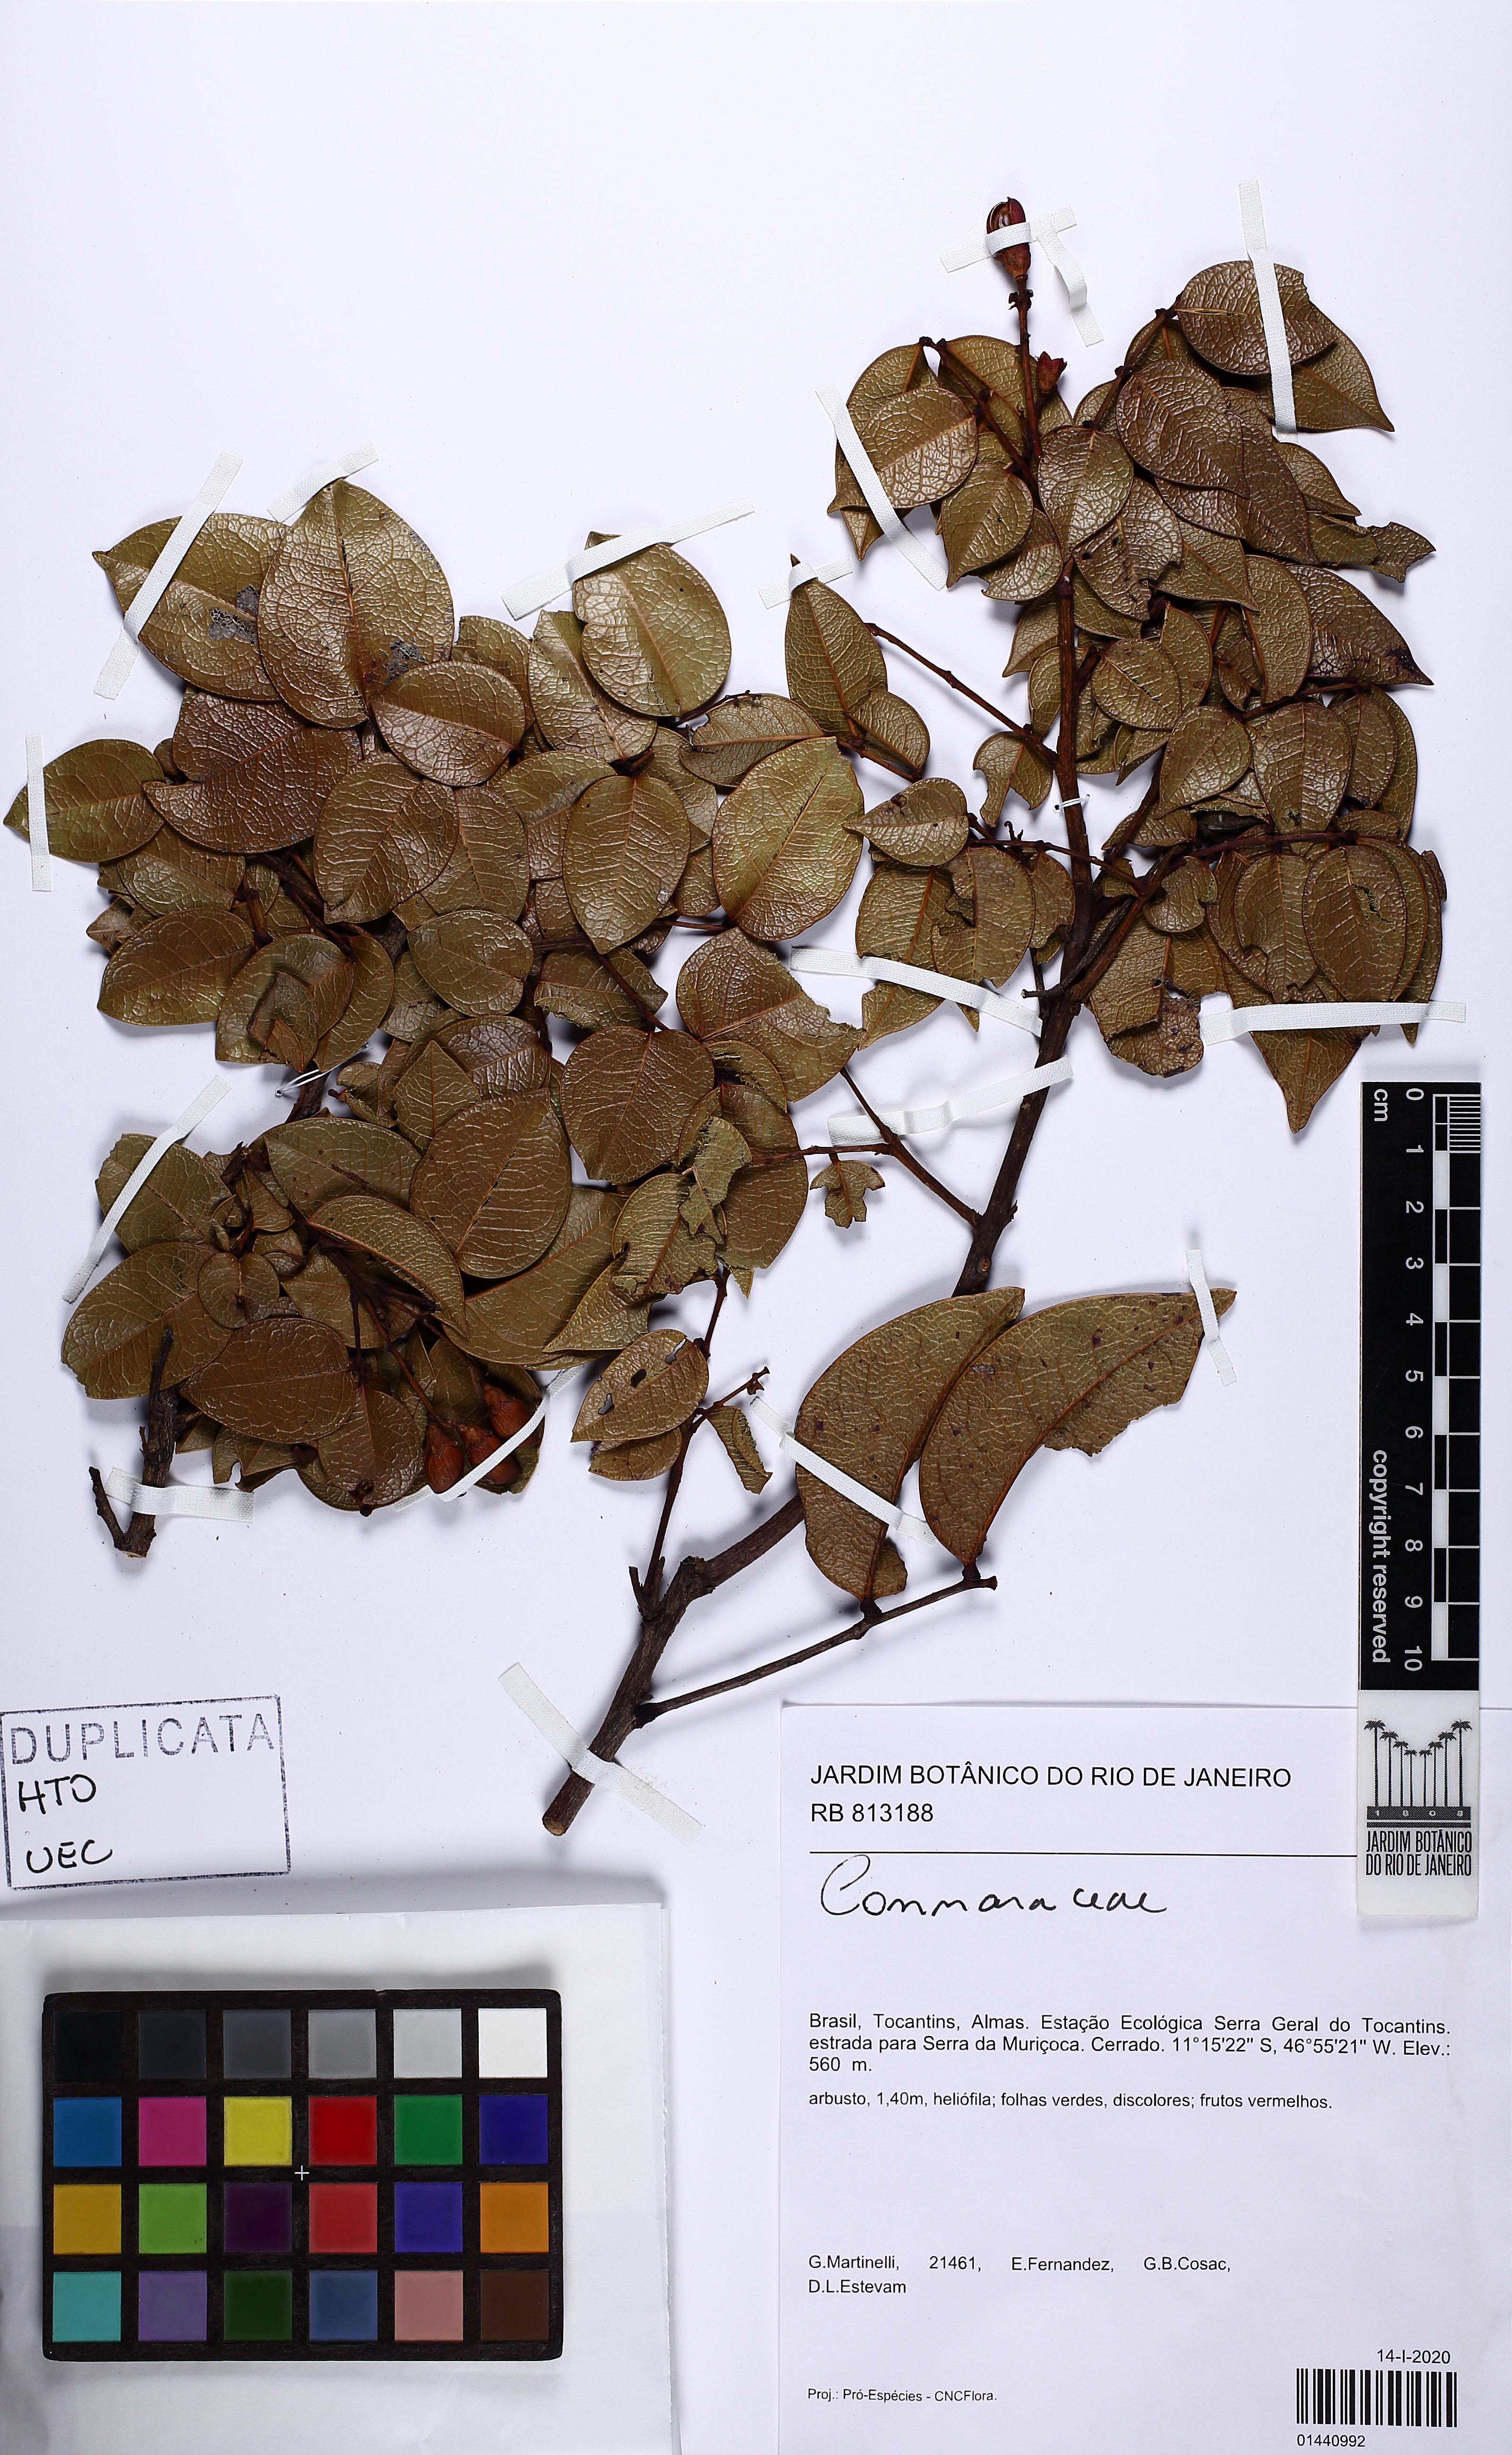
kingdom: Plantae
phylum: Tracheophyta
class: Magnoliopsida
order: Oxalidales
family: Connaraceae
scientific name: Connaraceae
